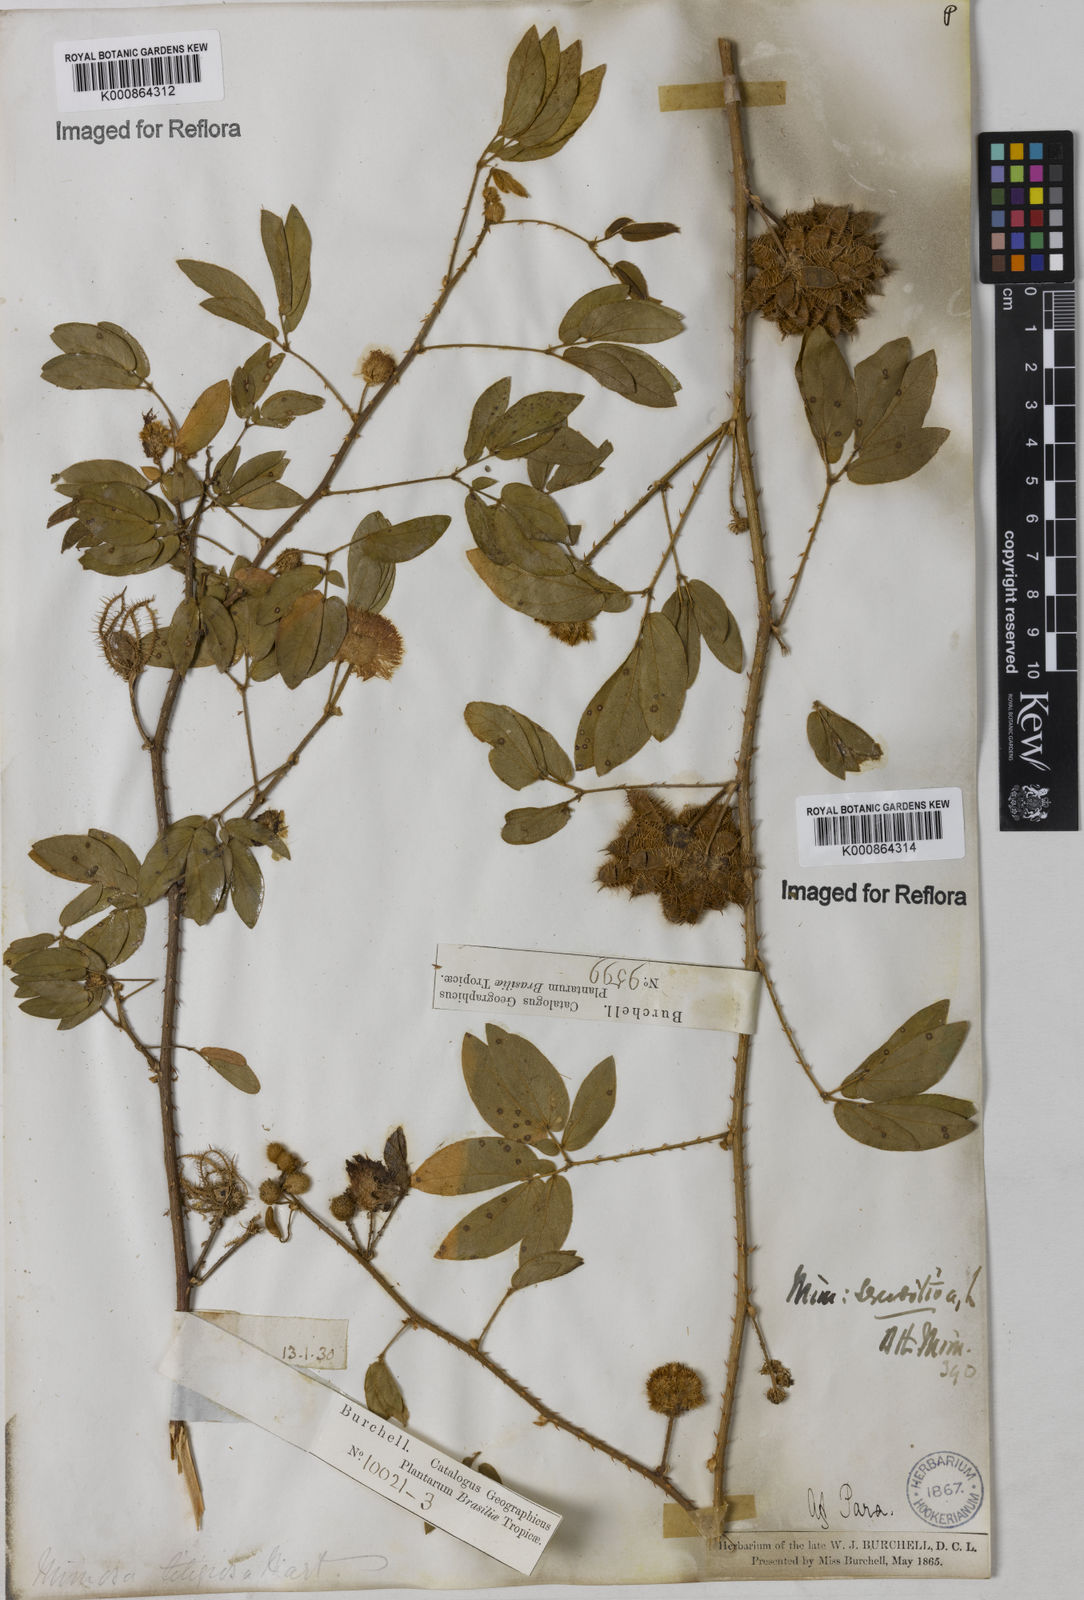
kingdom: Plantae
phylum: Tracheophyta
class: Magnoliopsida
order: Fabales
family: Fabaceae
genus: Mimosa
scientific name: Mimosa sensitiva
